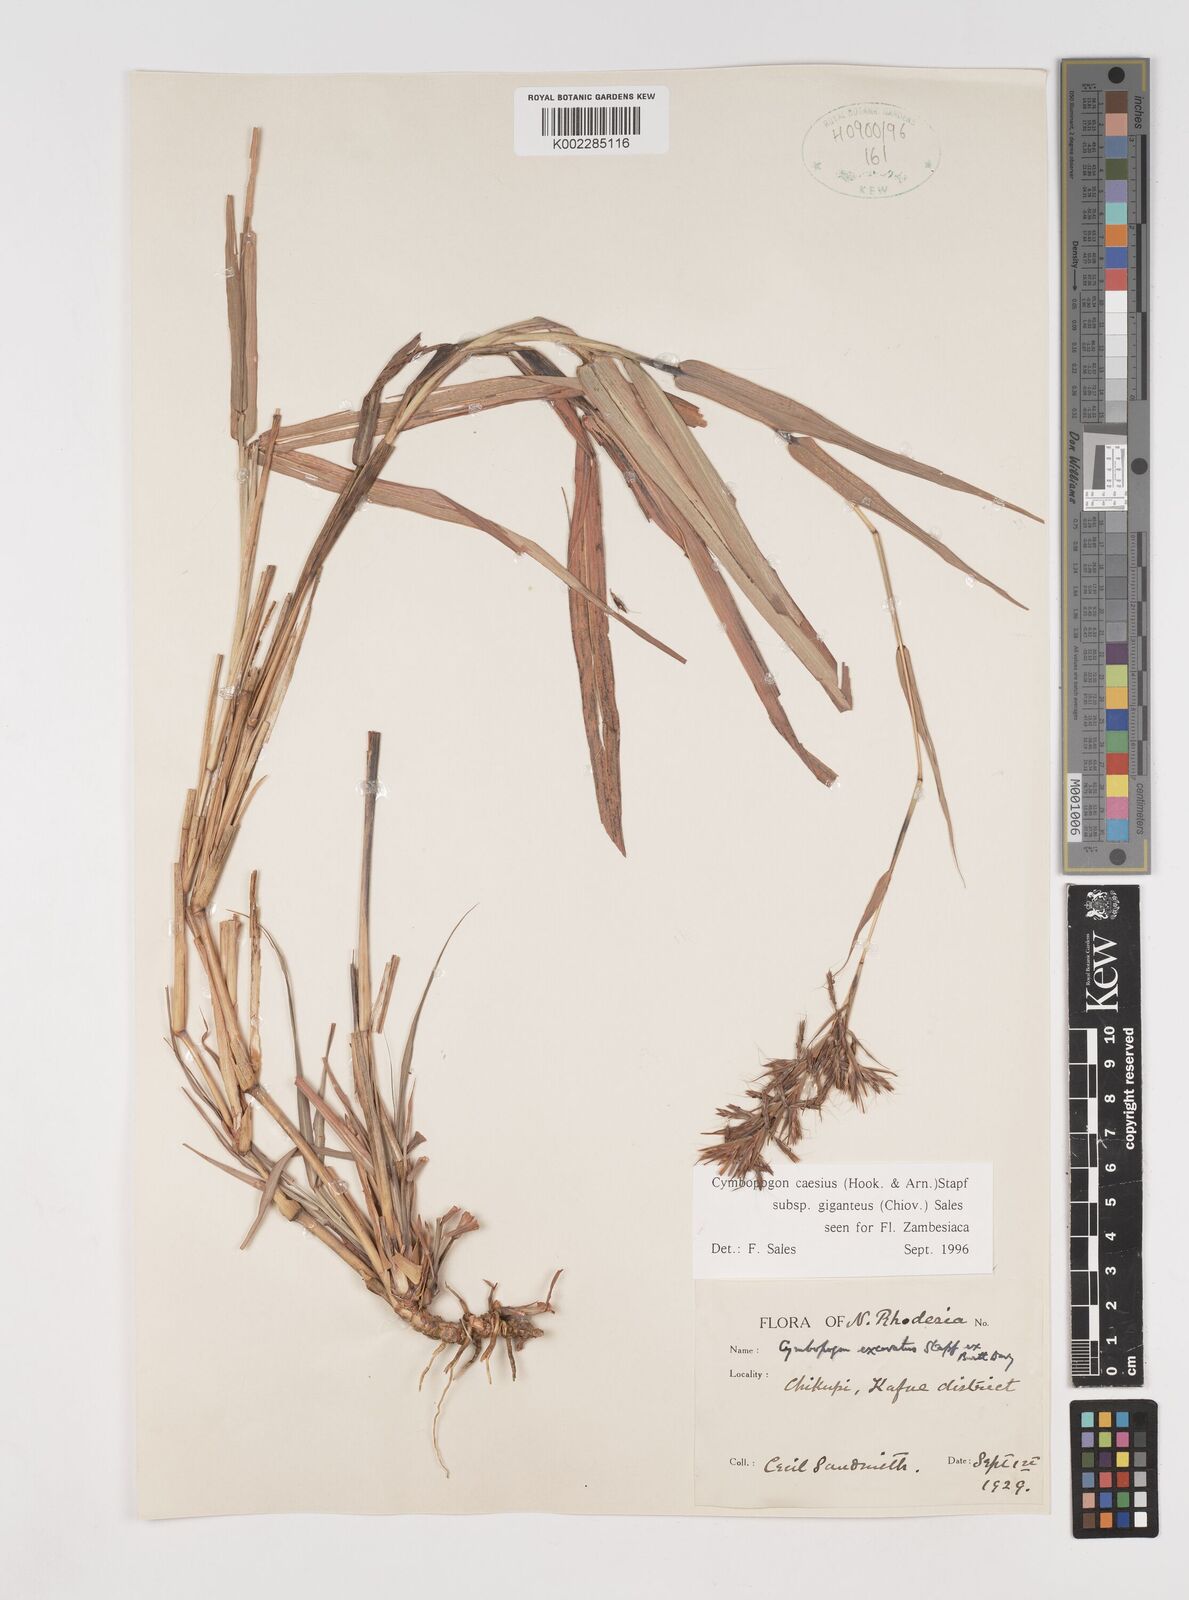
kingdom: Plantae
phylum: Tracheophyta
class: Liliopsida
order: Poales
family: Poaceae
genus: Cymbopogon
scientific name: Cymbopogon giganteus
